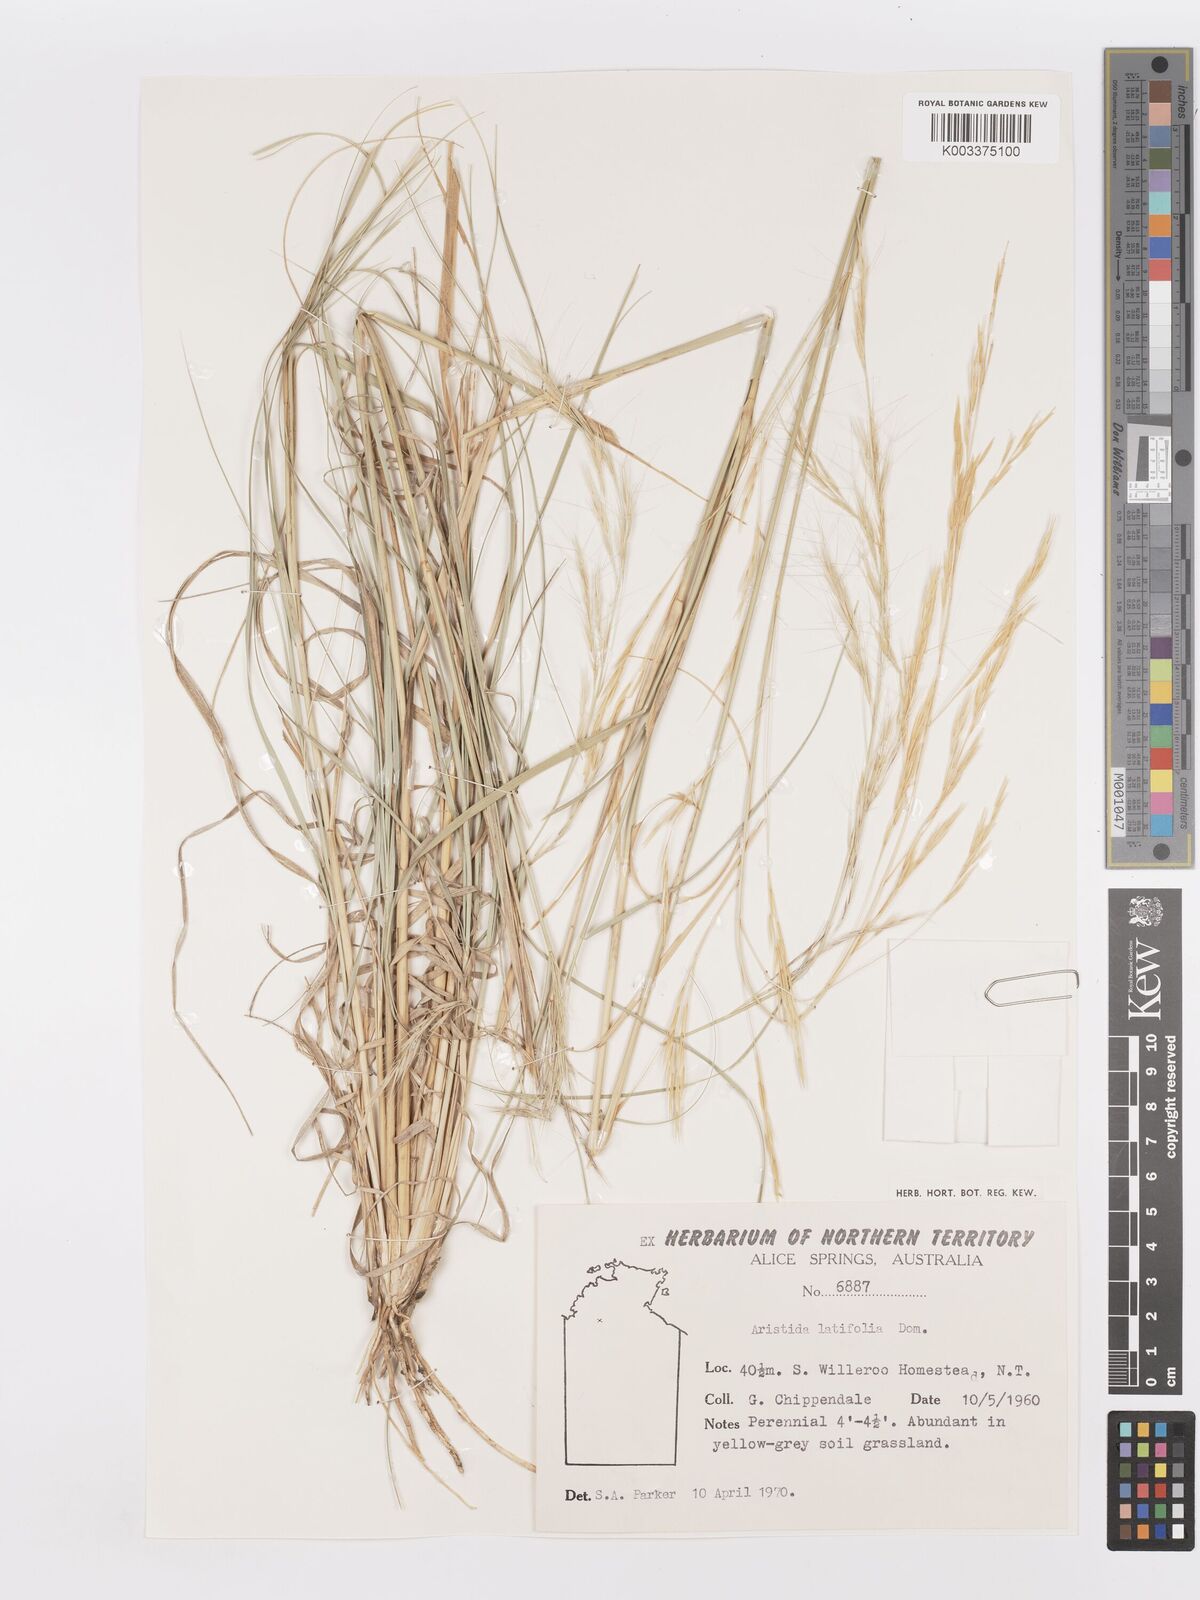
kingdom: Plantae
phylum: Tracheophyta
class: Liliopsida
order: Poales
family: Poaceae
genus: Aristida
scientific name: Aristida latifolia
